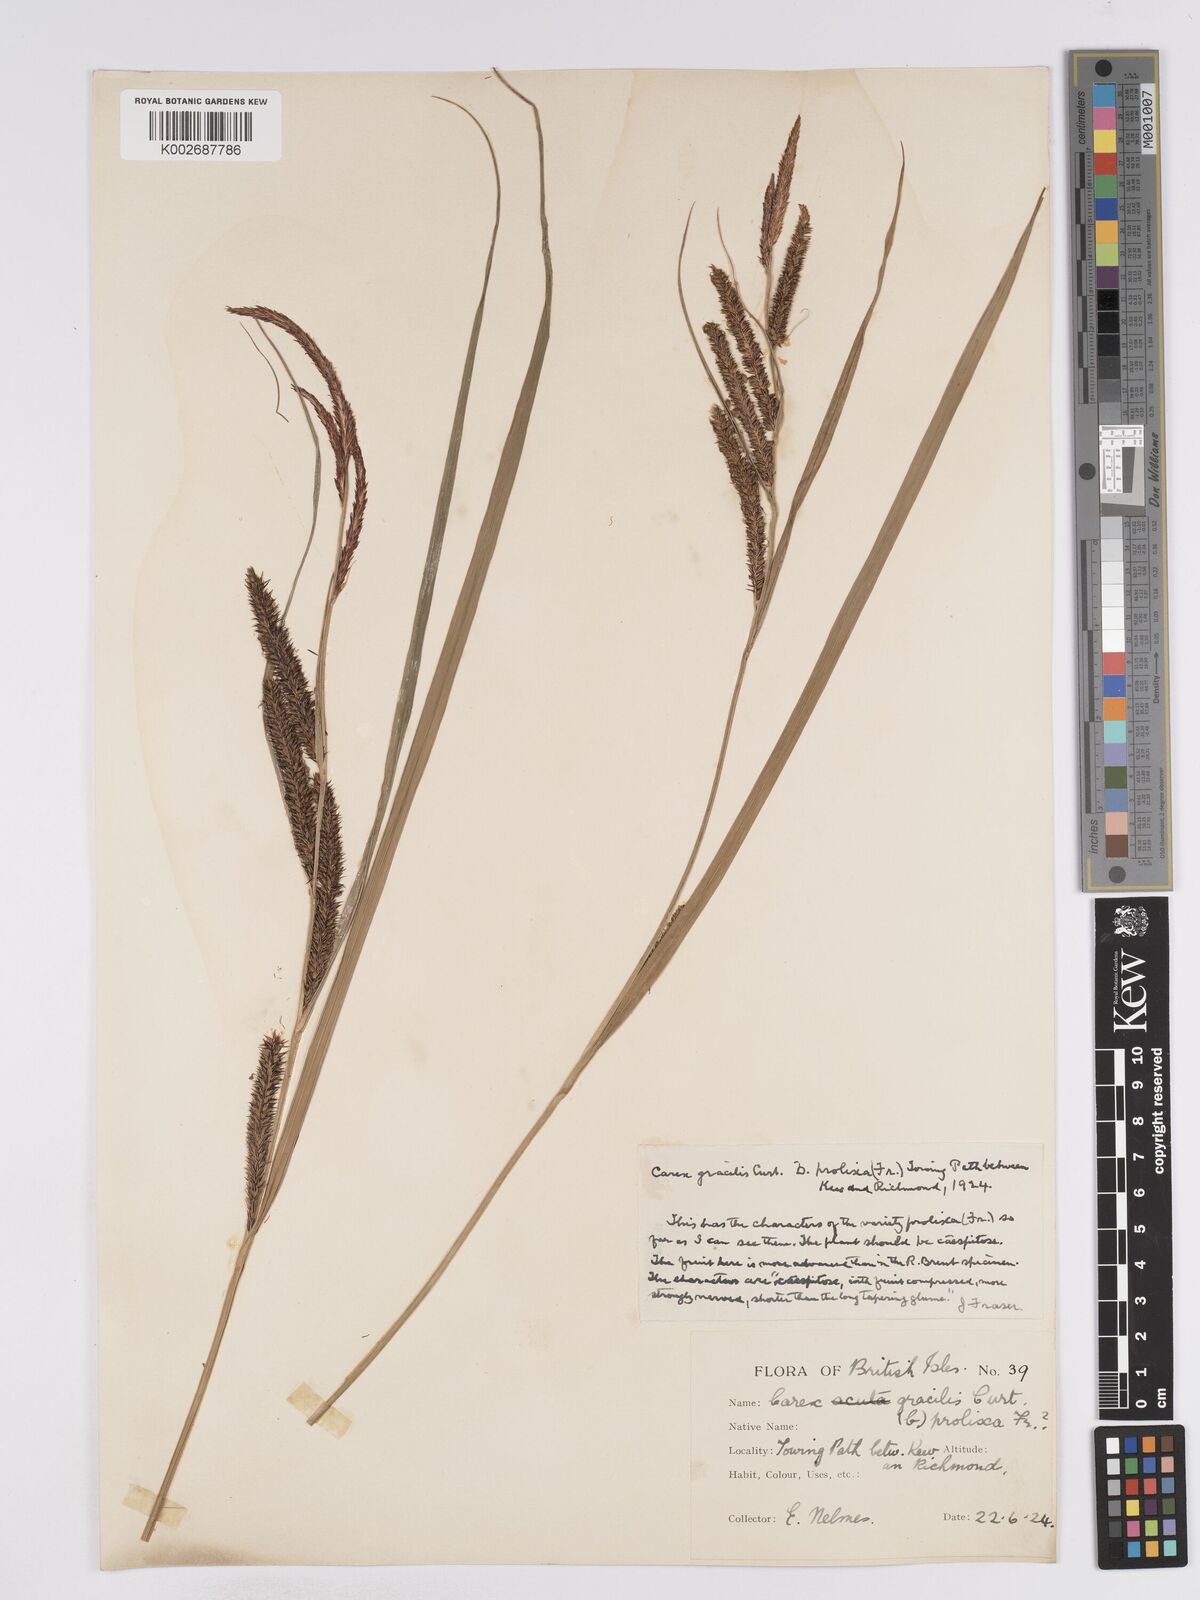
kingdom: Plantae
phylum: Tracheophyta
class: Liliopsida
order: Poales
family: Cyperaceae
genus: Carex
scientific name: Carex acuta
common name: Slender tufted-sedge
